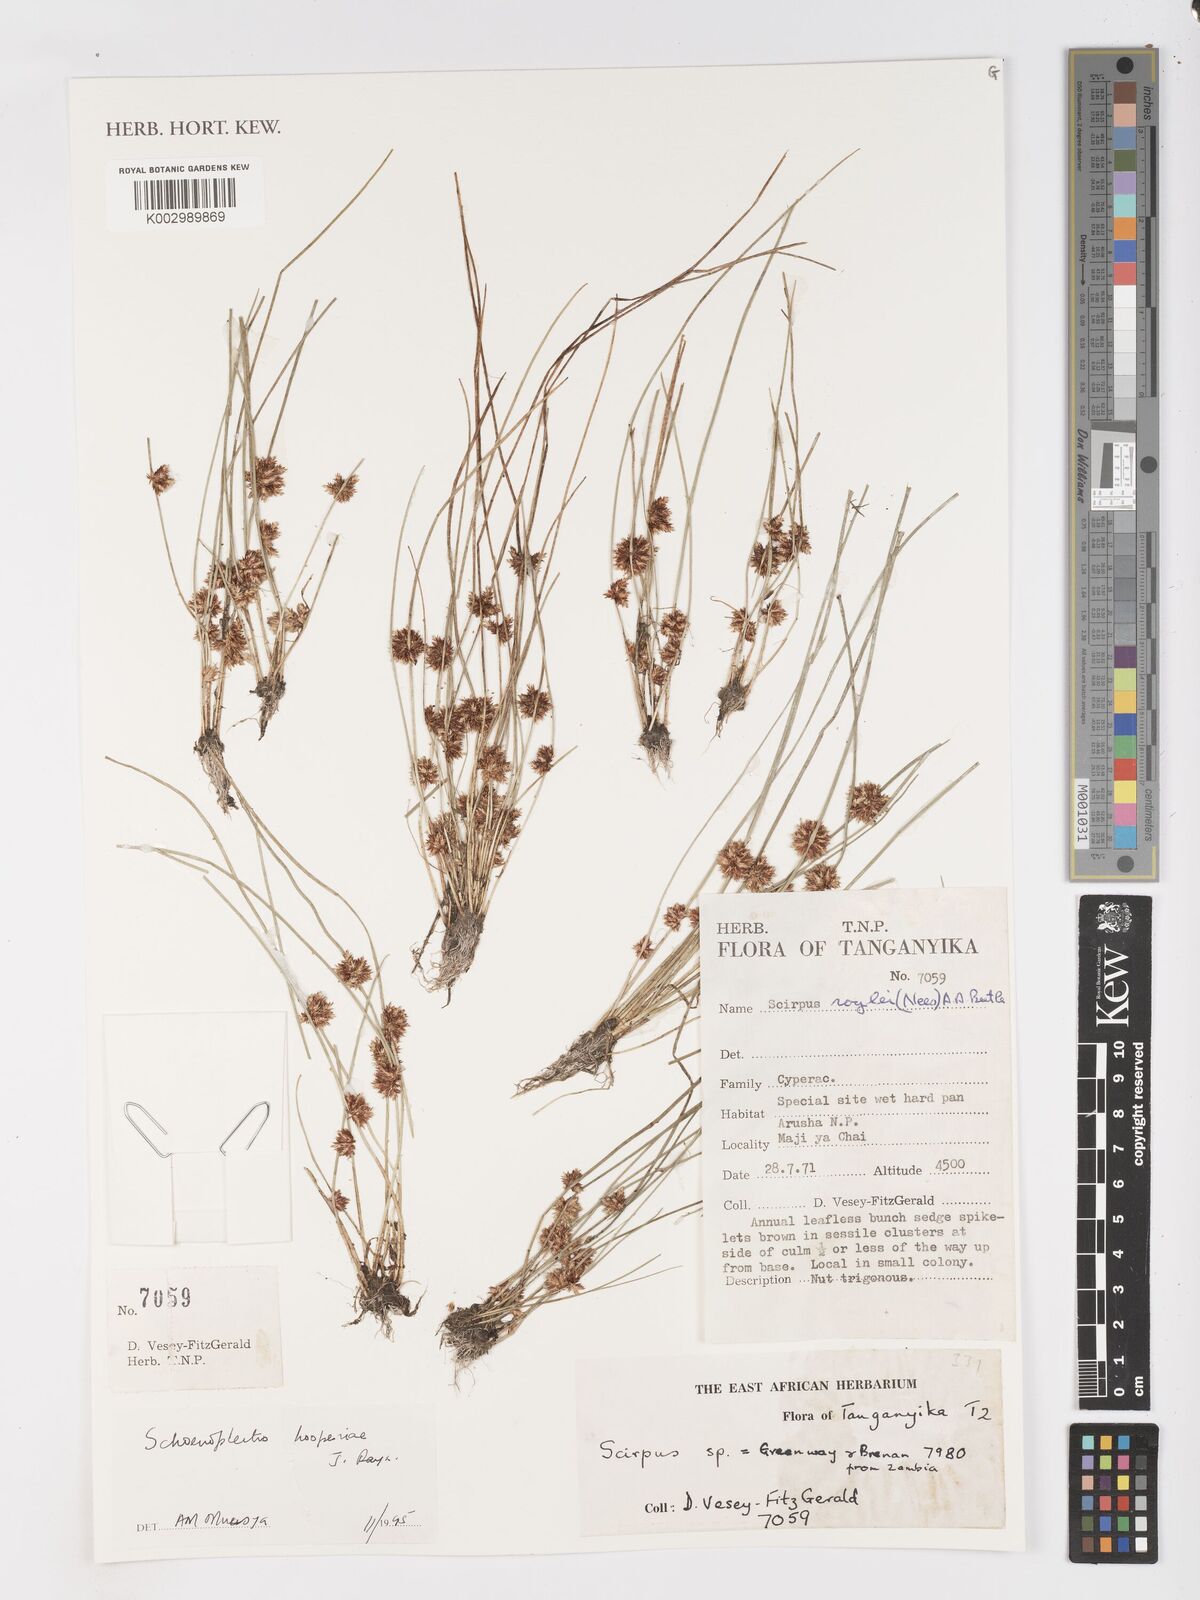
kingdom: Plantae
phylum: Tracheophyta
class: Liliopsida
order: Poales
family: Cyperaceae
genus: Schoenoplectiella
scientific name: Schoenoplectiella hooperae
